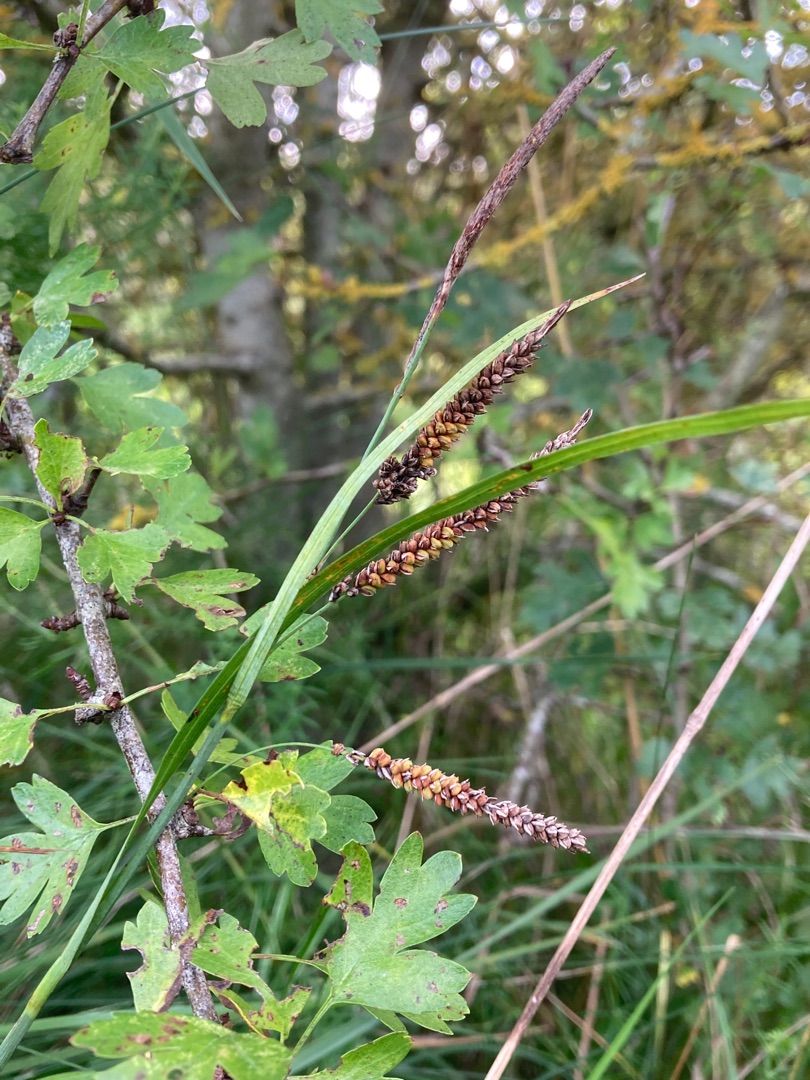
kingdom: Plantae
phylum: Tracheophyta
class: Liliopsida
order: Poales
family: Cyperaceae
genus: Carex
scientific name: Carex flacca
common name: Blågrøn star
